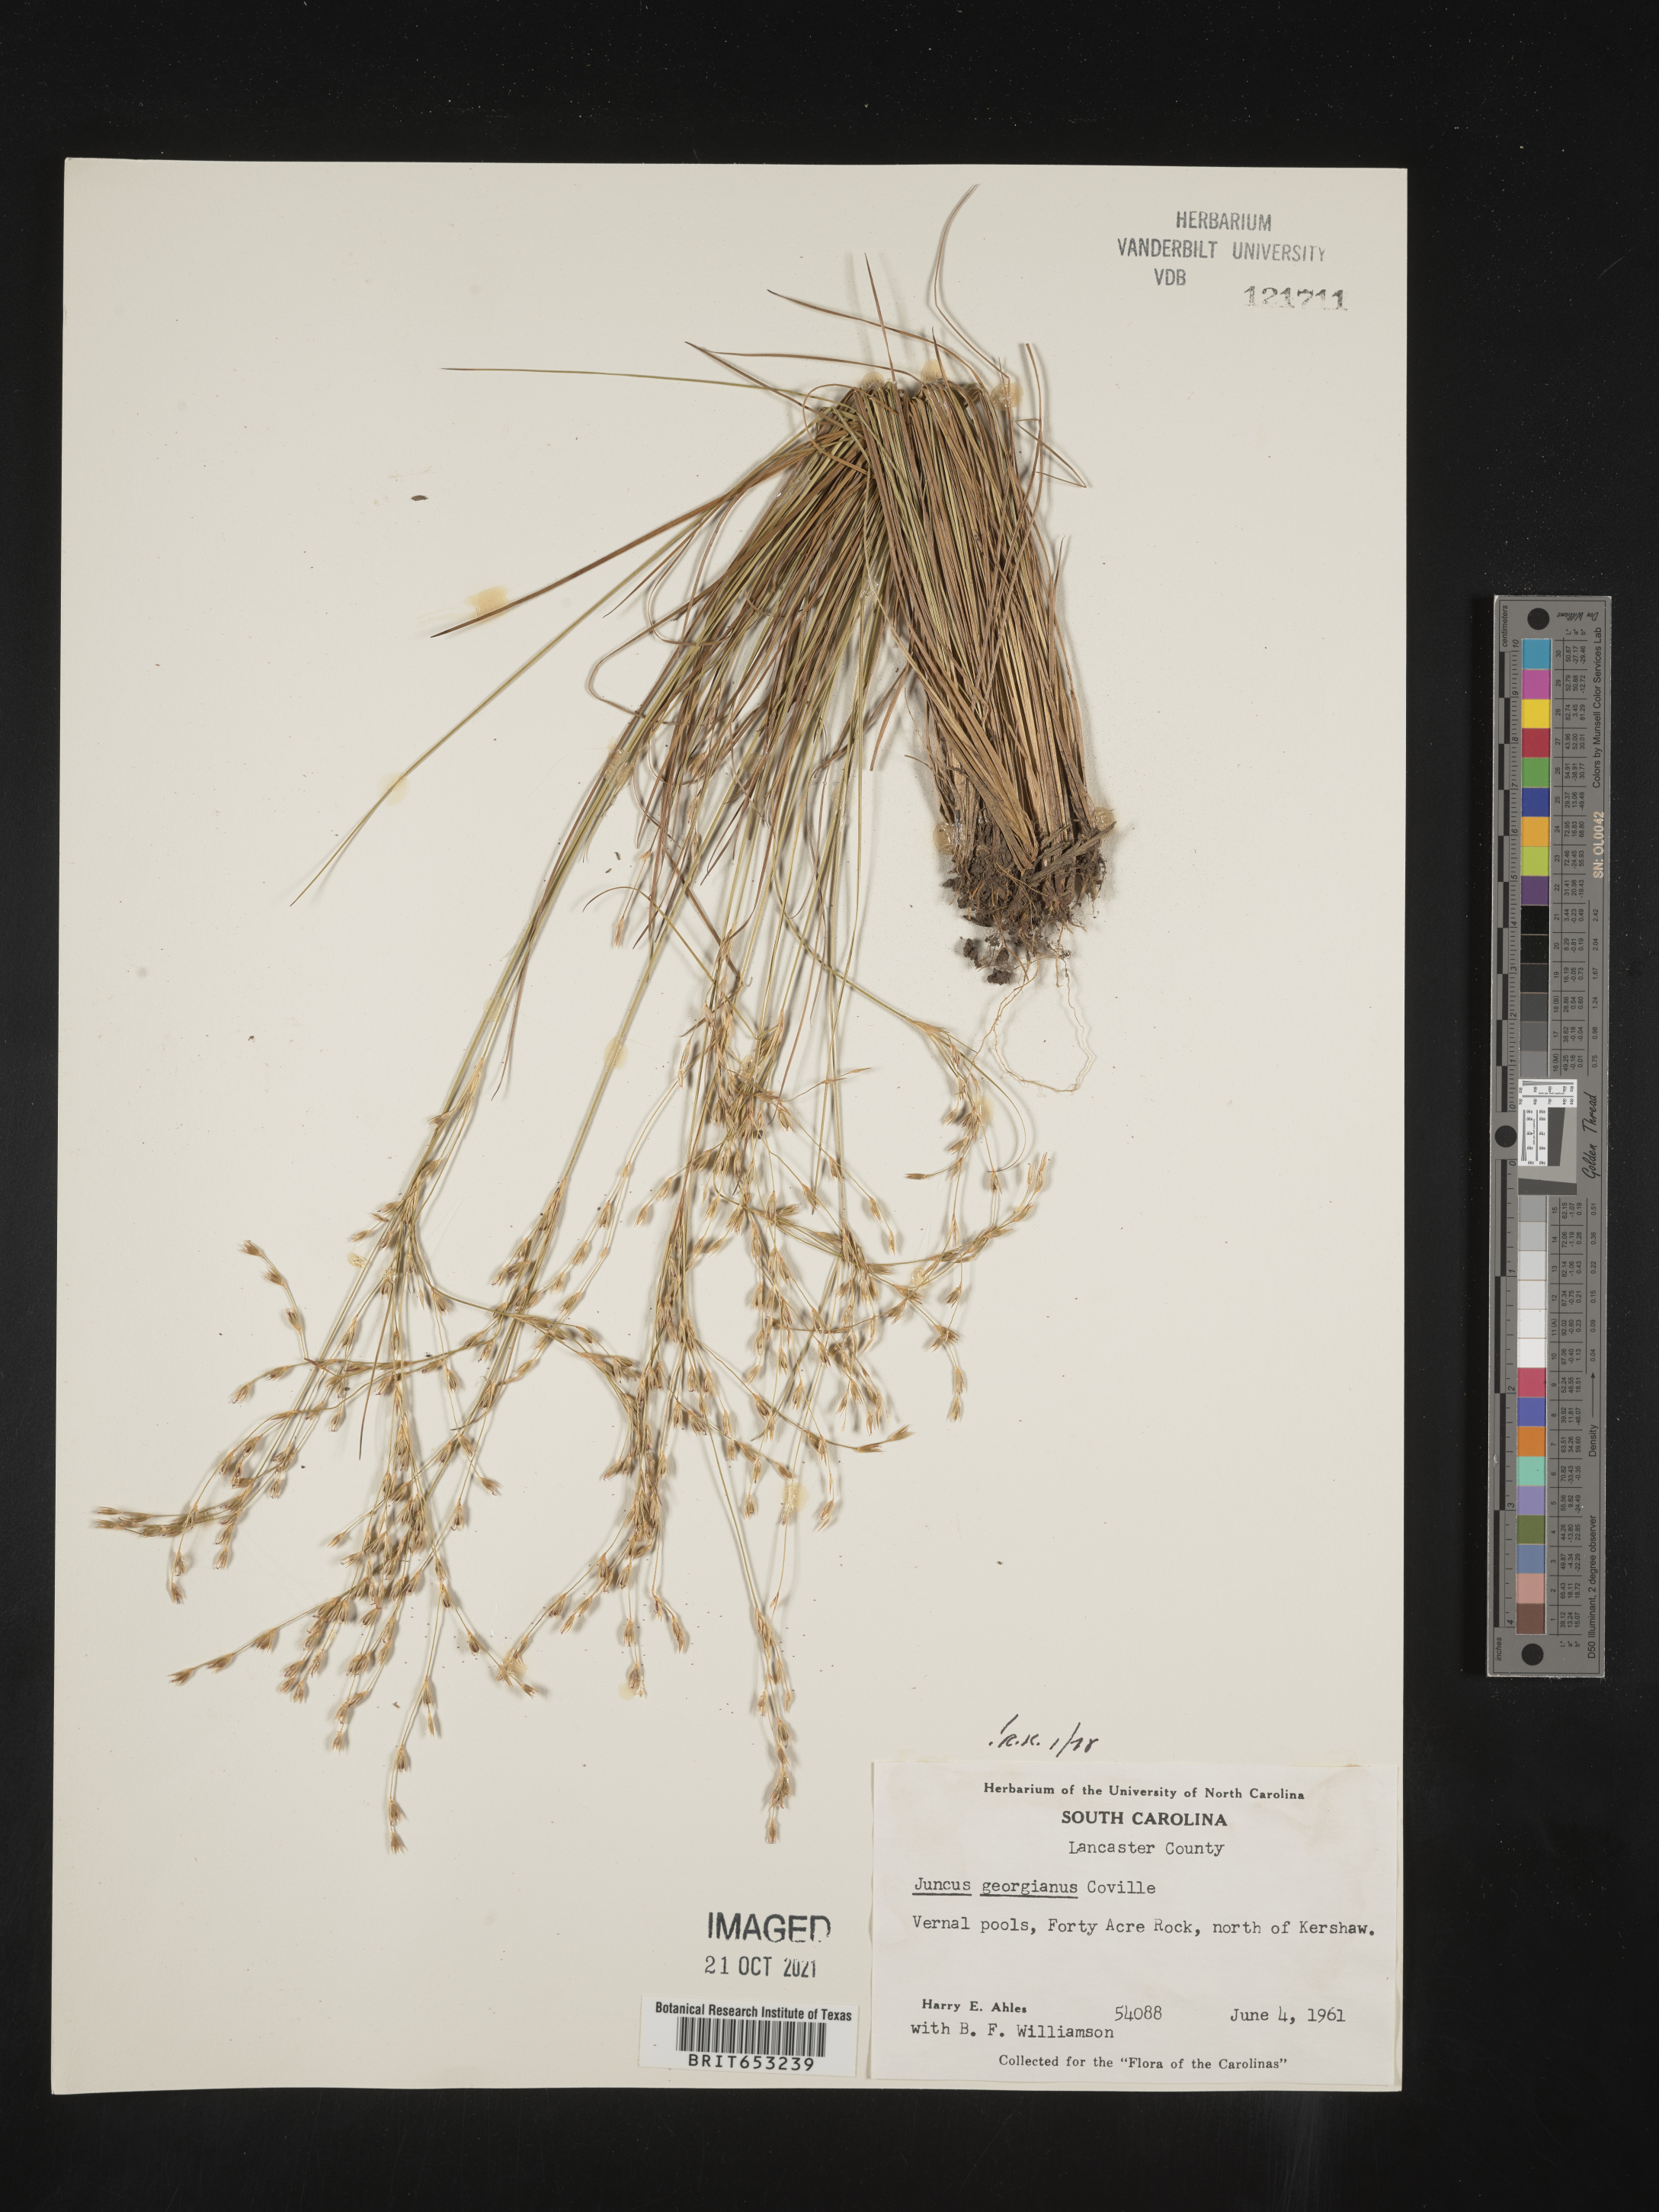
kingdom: Plantae
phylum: Tracheophyta
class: Liliopsida
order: Poales
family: Juncaceae
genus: Juncus
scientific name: Juncus georgianus
